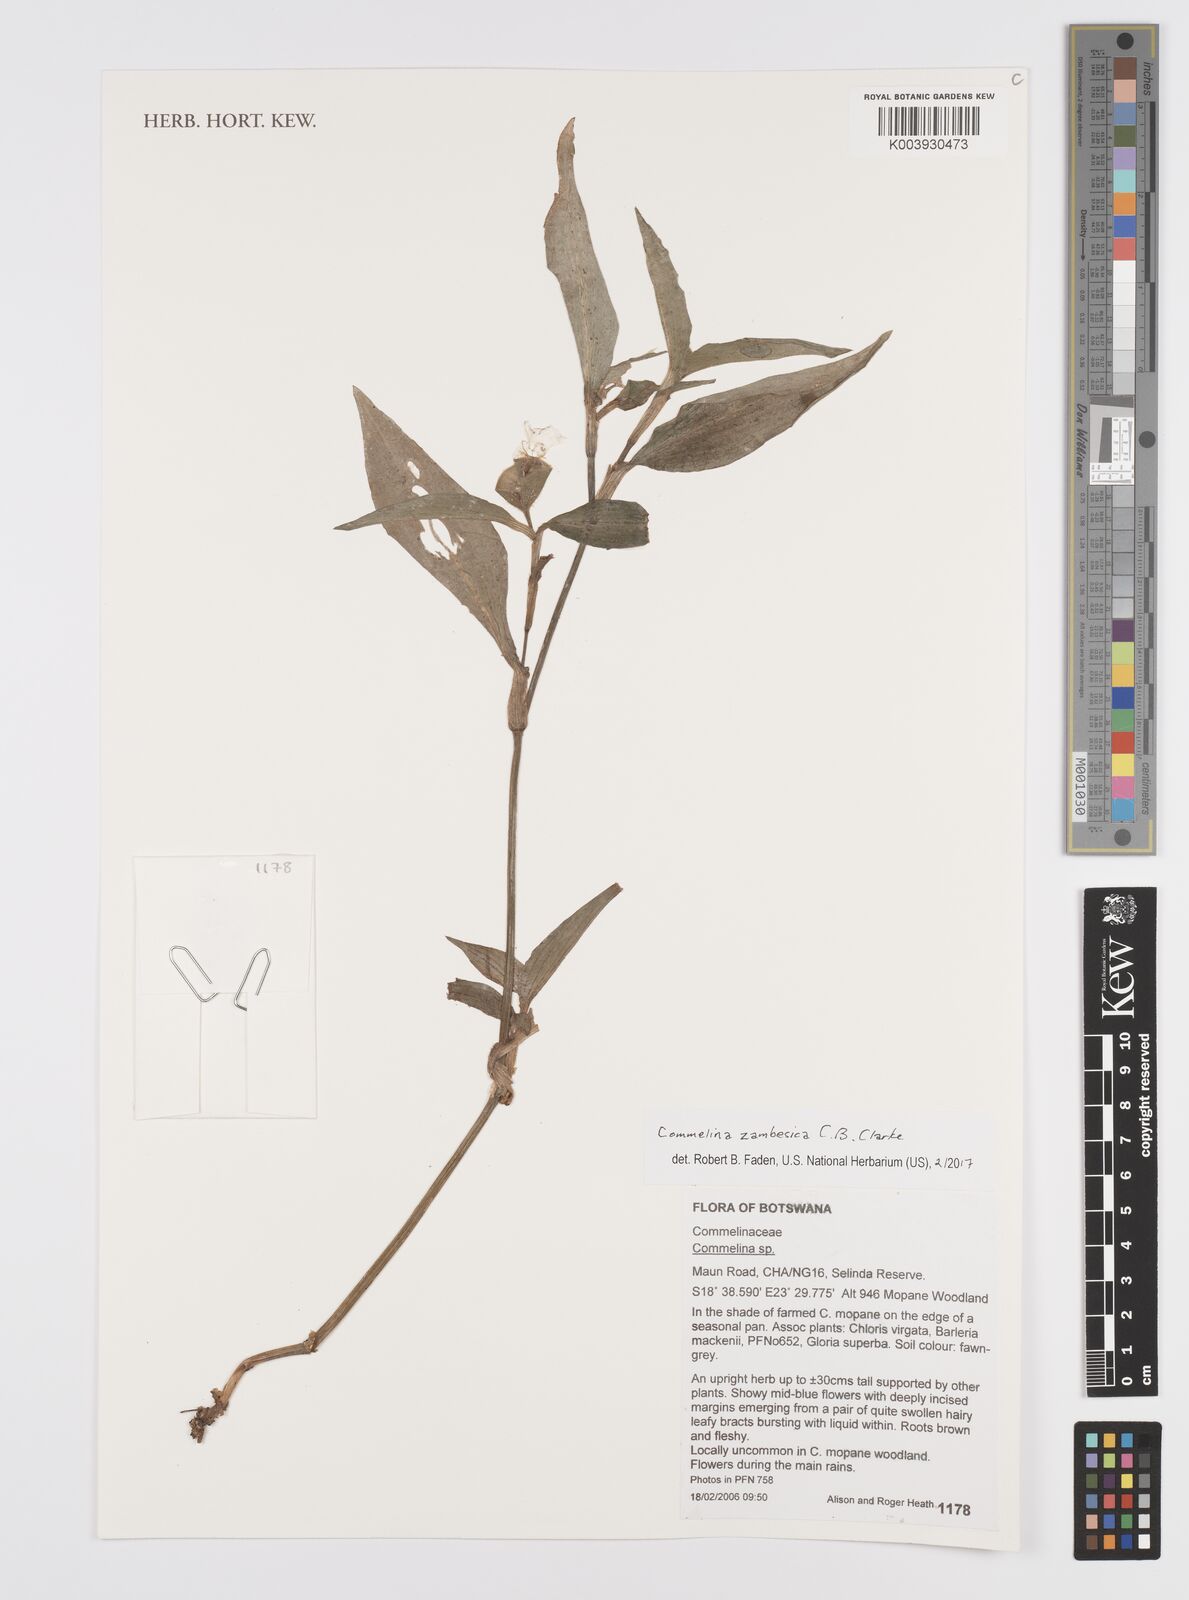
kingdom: Plantae
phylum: Tracheophyta
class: Liliopsida
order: Commelinales
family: Commelinaceae
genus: Commelina
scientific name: Commelina zambesica
